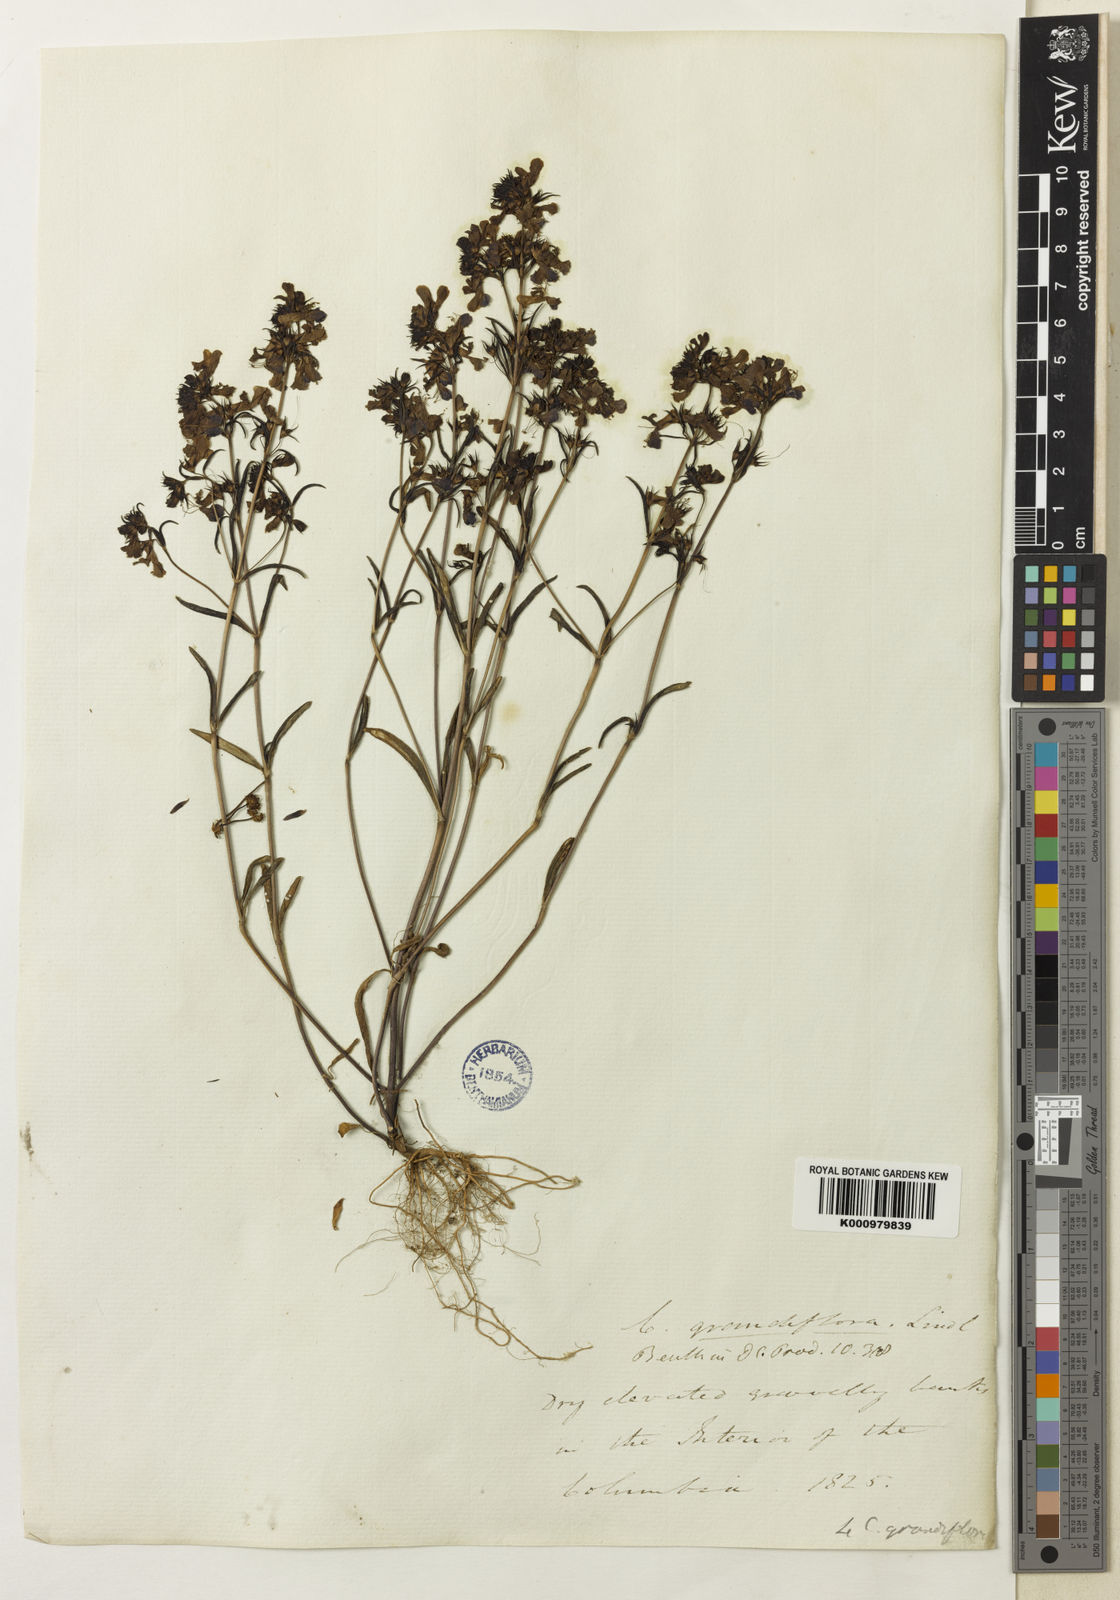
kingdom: Plantae
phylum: Tracheophyta
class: Magnoliopsida
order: Lamiales
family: Plantaginaceae
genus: Collinsia
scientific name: Collinsia grandiflora
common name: Large-flower blue-eyed-mary
